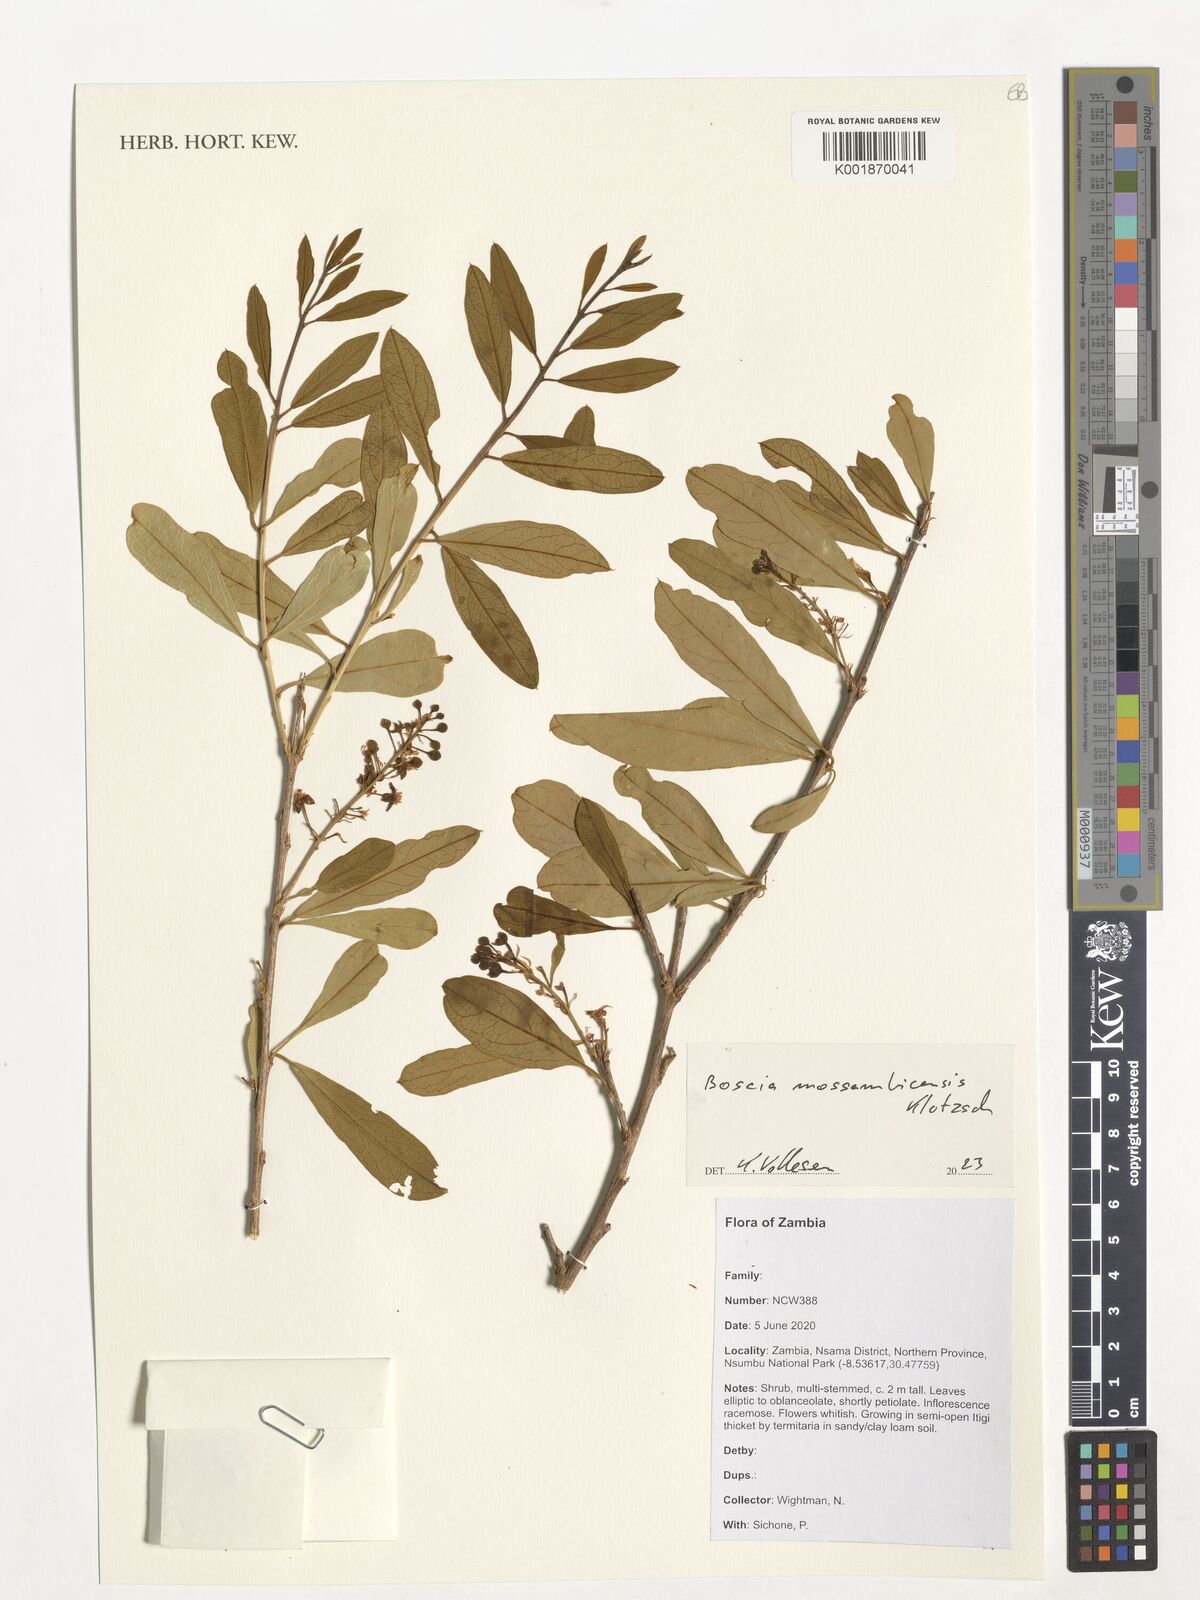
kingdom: Plantae
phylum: Tracheophyta
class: Magnoliopsida
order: Brassicales
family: Capparaceae
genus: Boscia
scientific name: Boscia mossambicensis
